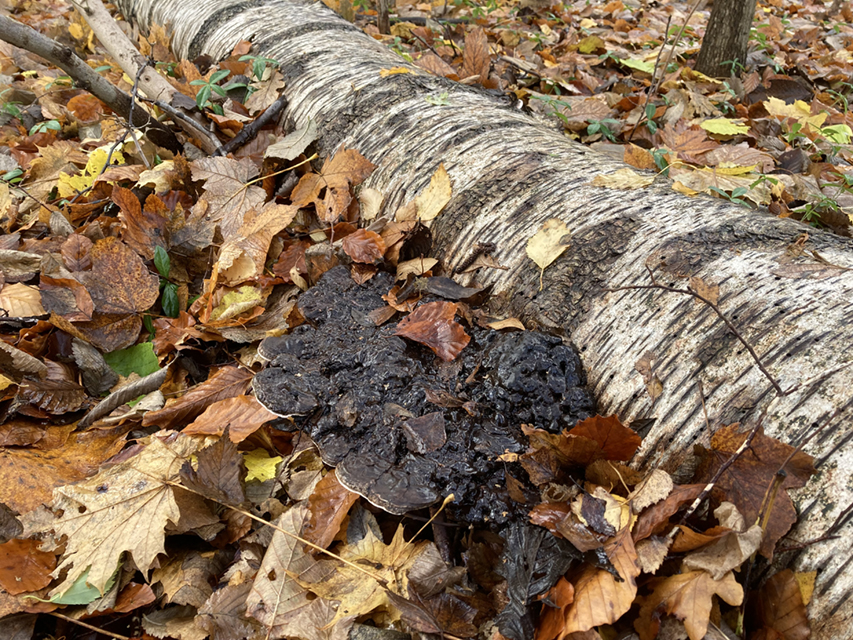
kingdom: Fungi
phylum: Basidiomycota
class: Agaricomycetes
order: Polyporales
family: Polyporaceae
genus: Ganoderma
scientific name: Ganoderma applanatum
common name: flad lakporesvamp
